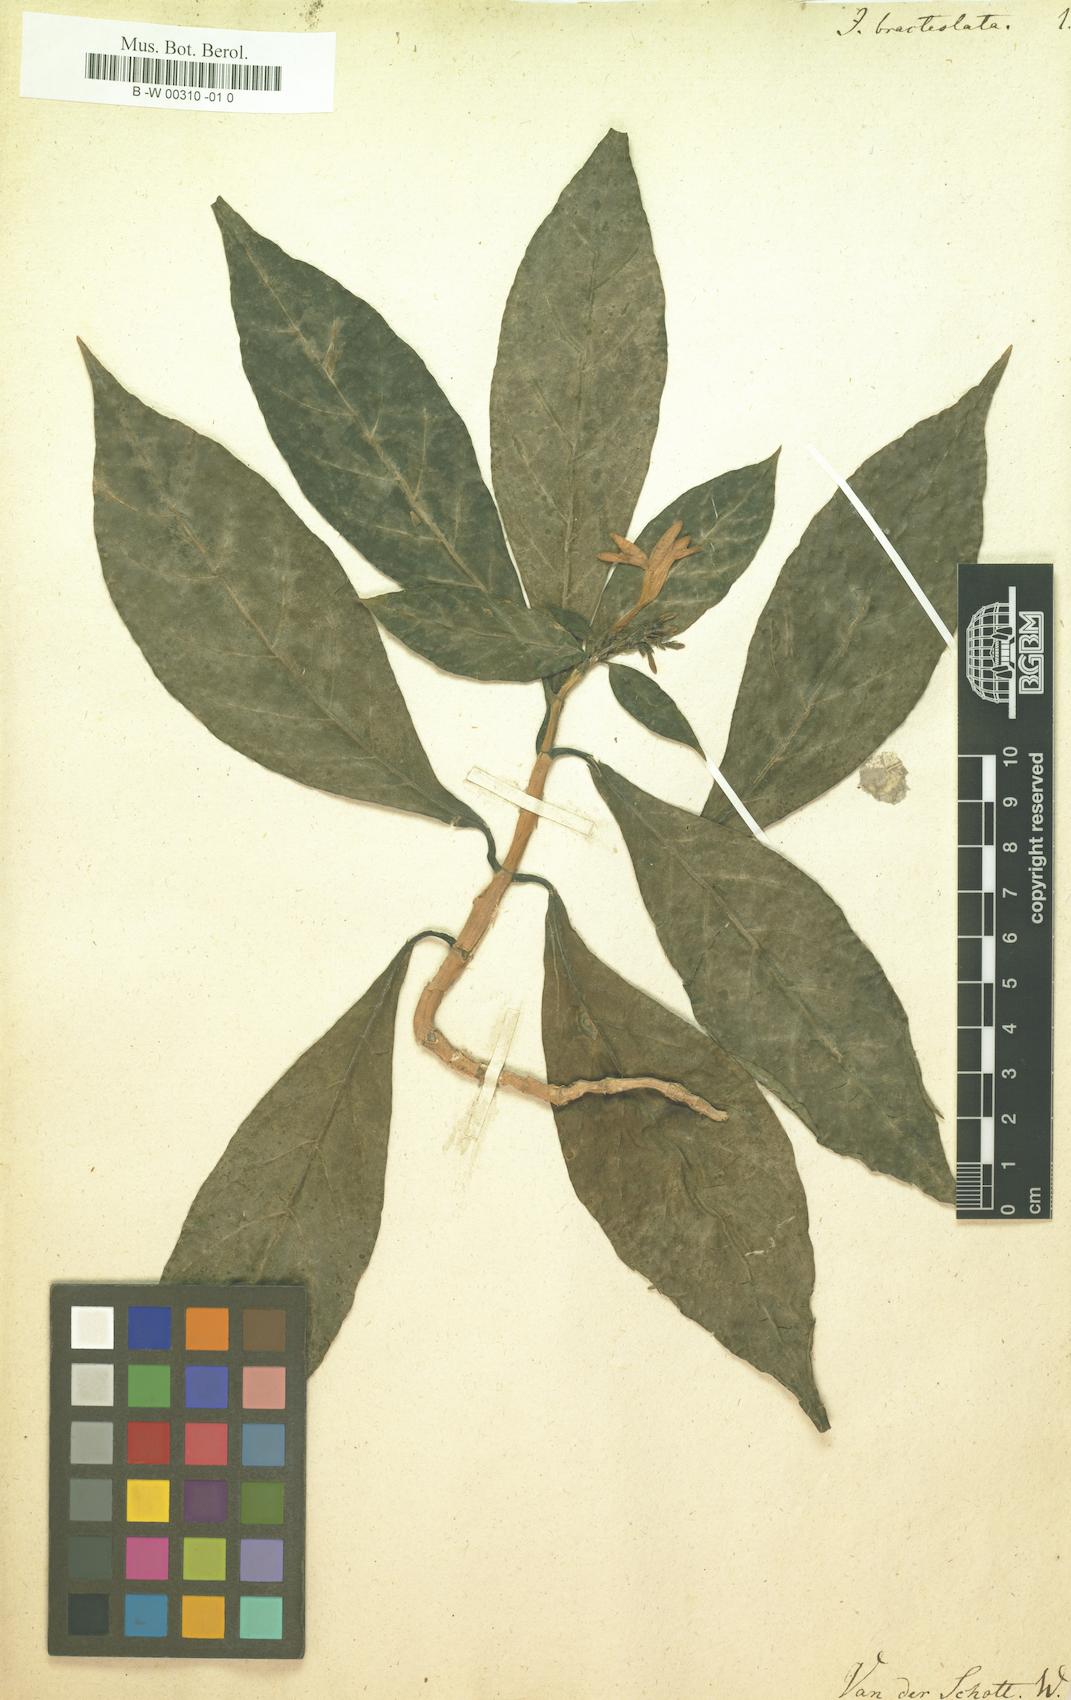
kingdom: Plantae
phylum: Tracheophyta
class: Magnoliopsida
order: Lamiales
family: Acanthaceae
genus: Odontonema
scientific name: Odontonema bracteolatum
